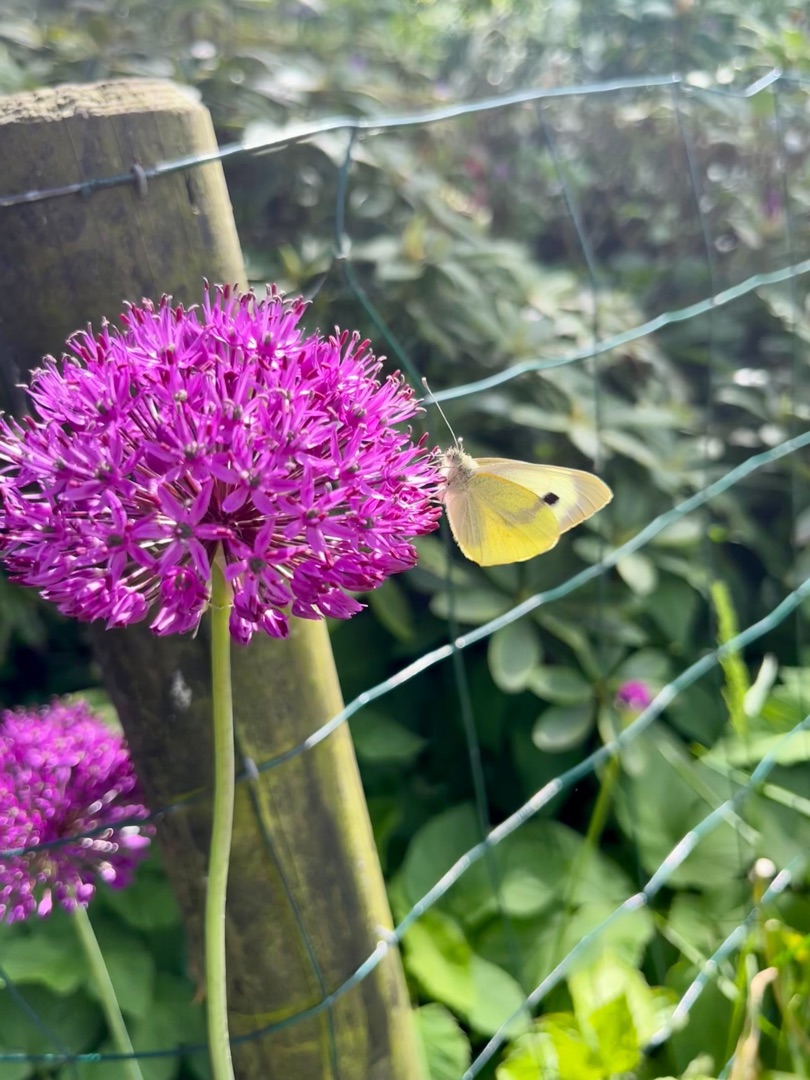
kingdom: Animalia
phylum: Arthropoda
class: Insecta
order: Lepidoptera
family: Pieridae
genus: Pieris
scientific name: Pieris brassicae
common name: Stor kålsommerfugl
